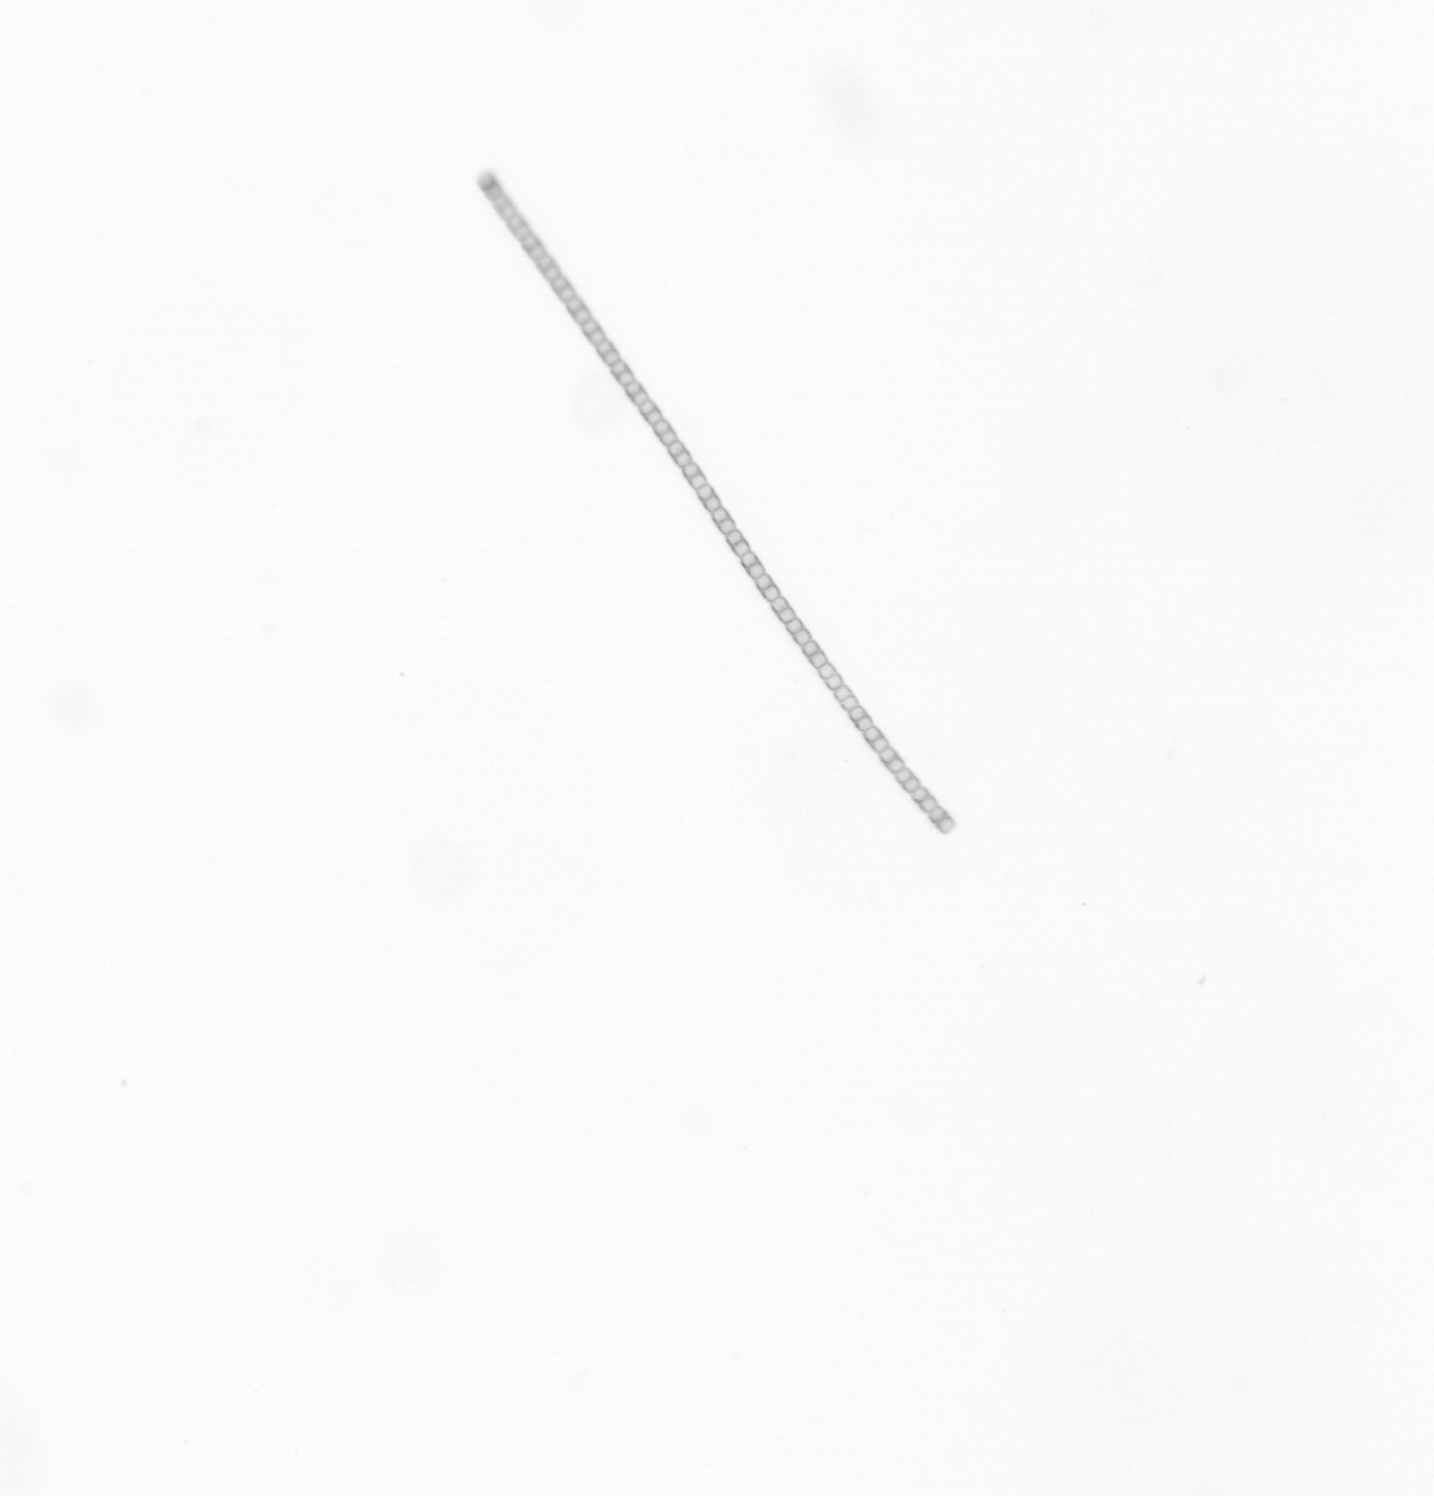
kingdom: Chromista
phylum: Ochrophyta
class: Bacillariophyceae
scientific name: Bacillariophyceae
